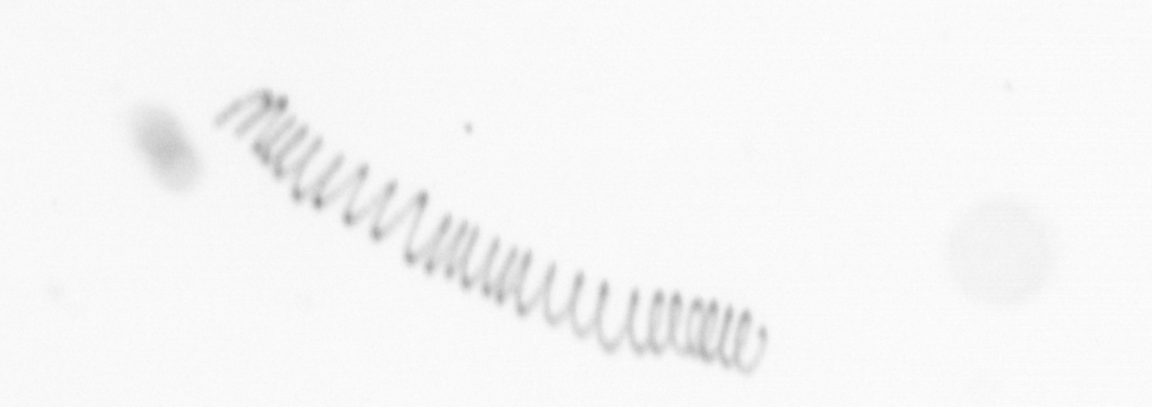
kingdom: Chromista
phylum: Ochrophyta
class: Bacillariophyceae
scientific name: Bacillariophyceae
